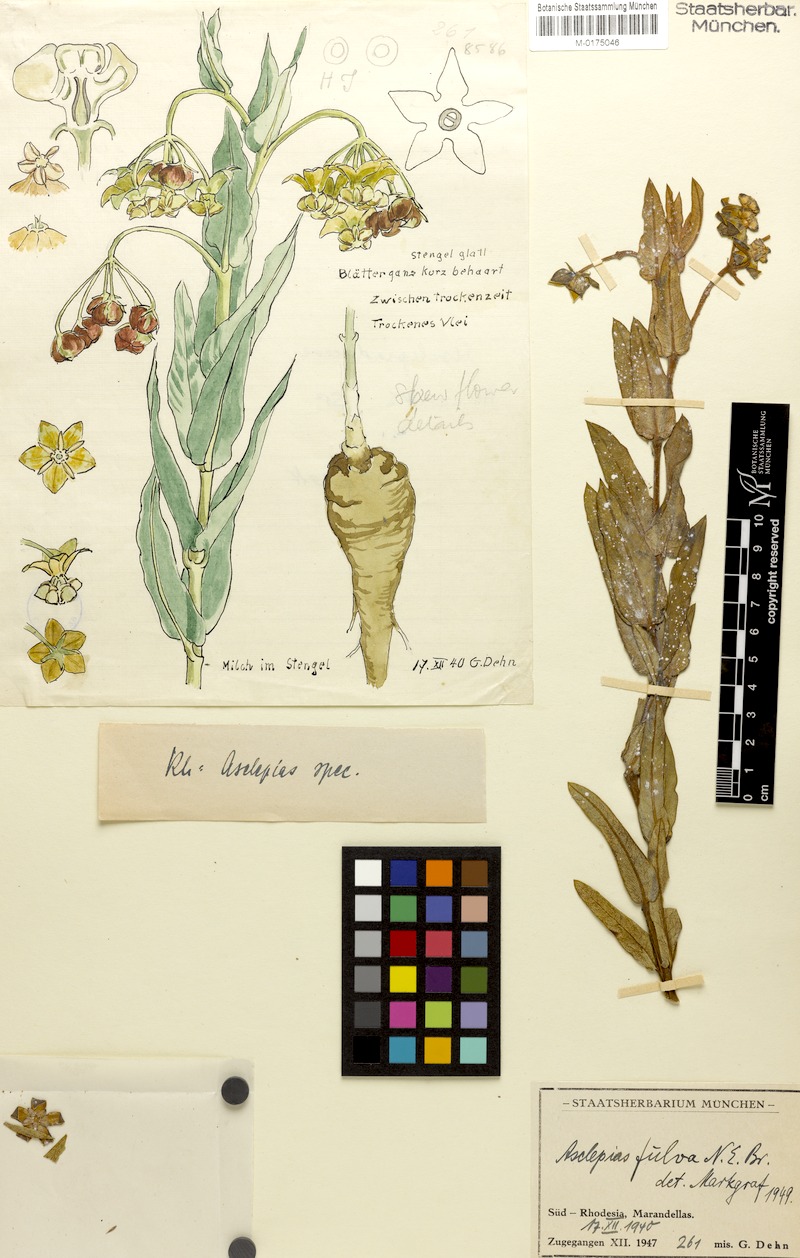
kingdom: Plantae
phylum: Tracheophyta
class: Magnoliopsida
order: Gentianales
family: Apocynaceae
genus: Asclepias
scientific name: Asclepias fulva
